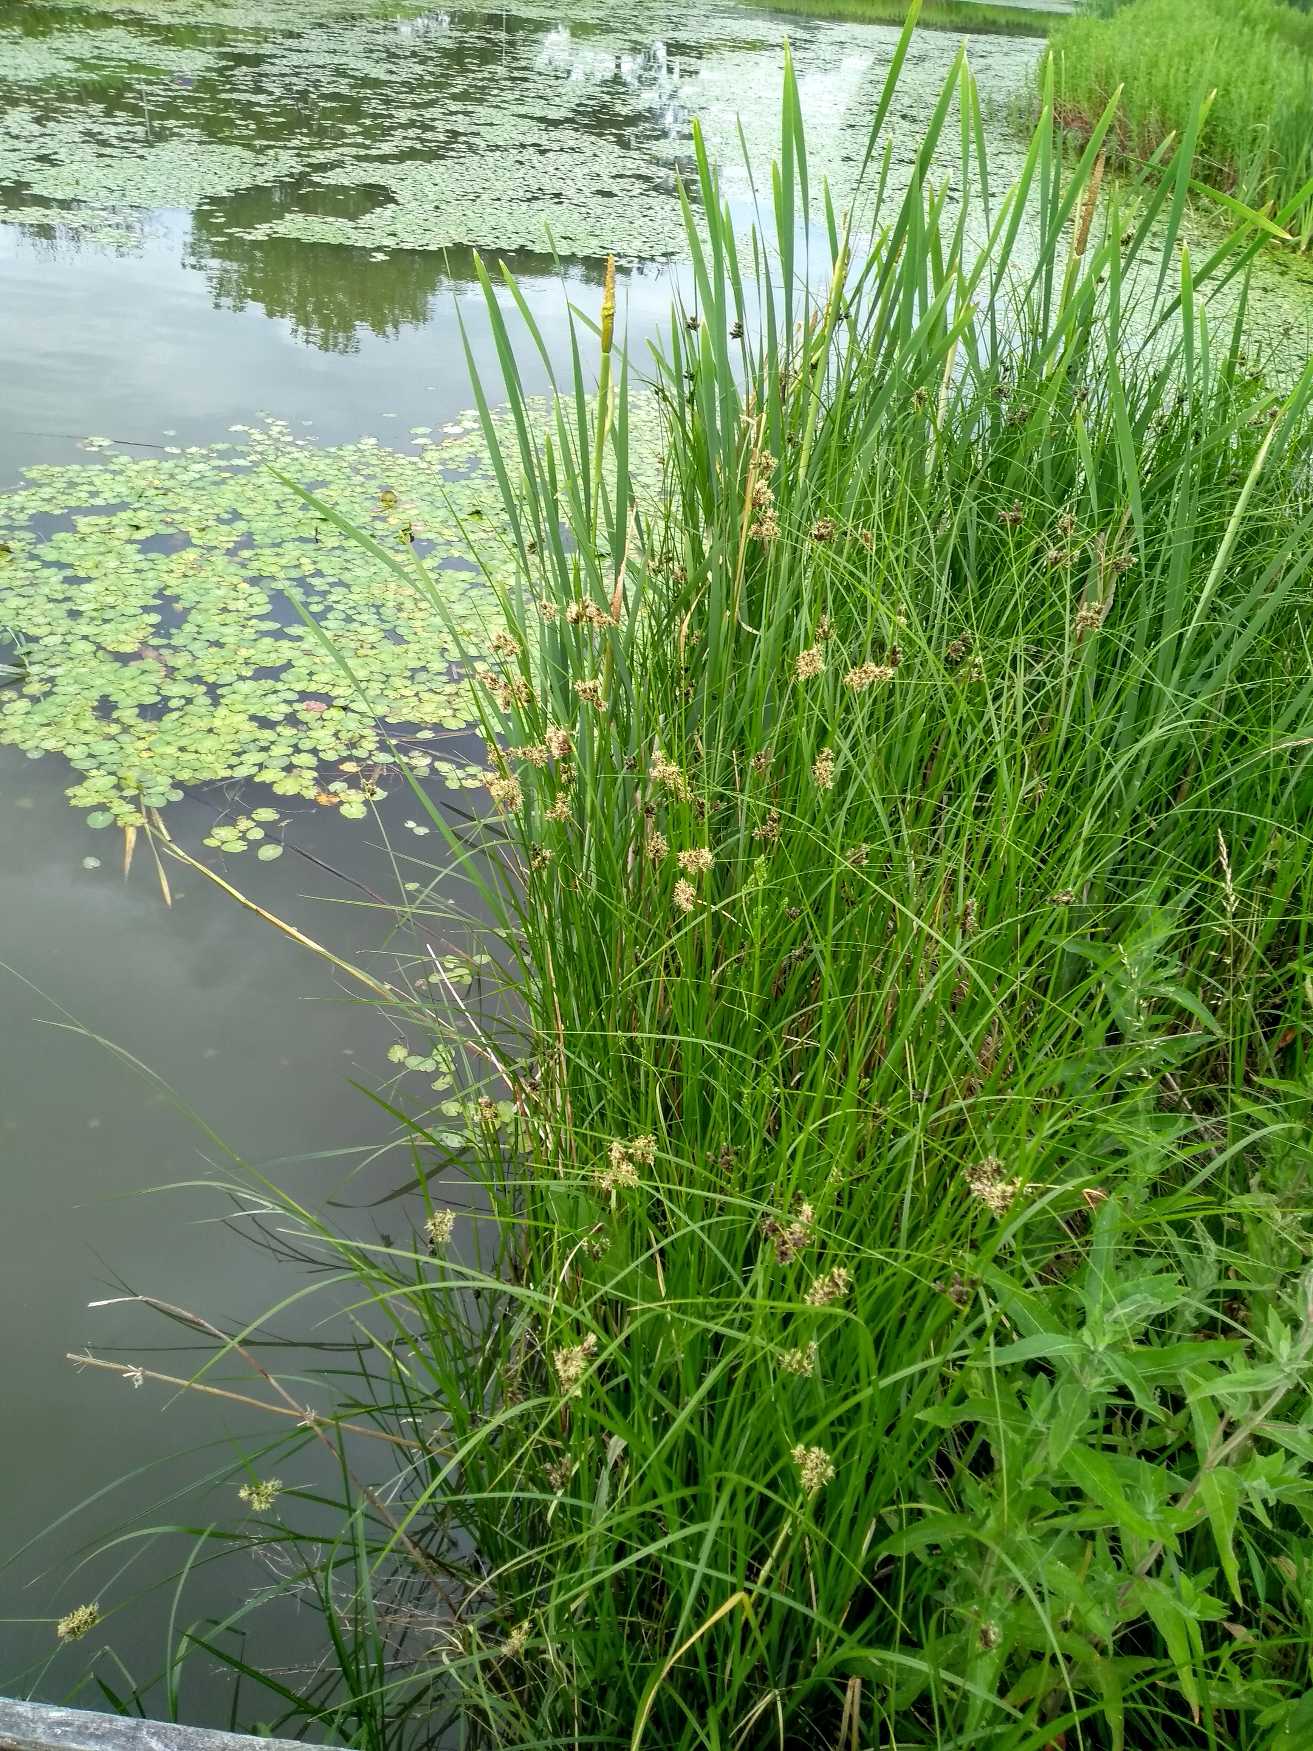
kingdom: Plantae
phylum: Tracheophyta
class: Liliopsida
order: Poales
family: Cyperaceae
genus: Bolboschoenus
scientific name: Bolboschoenus maritimus
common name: Strand-kogleaks
